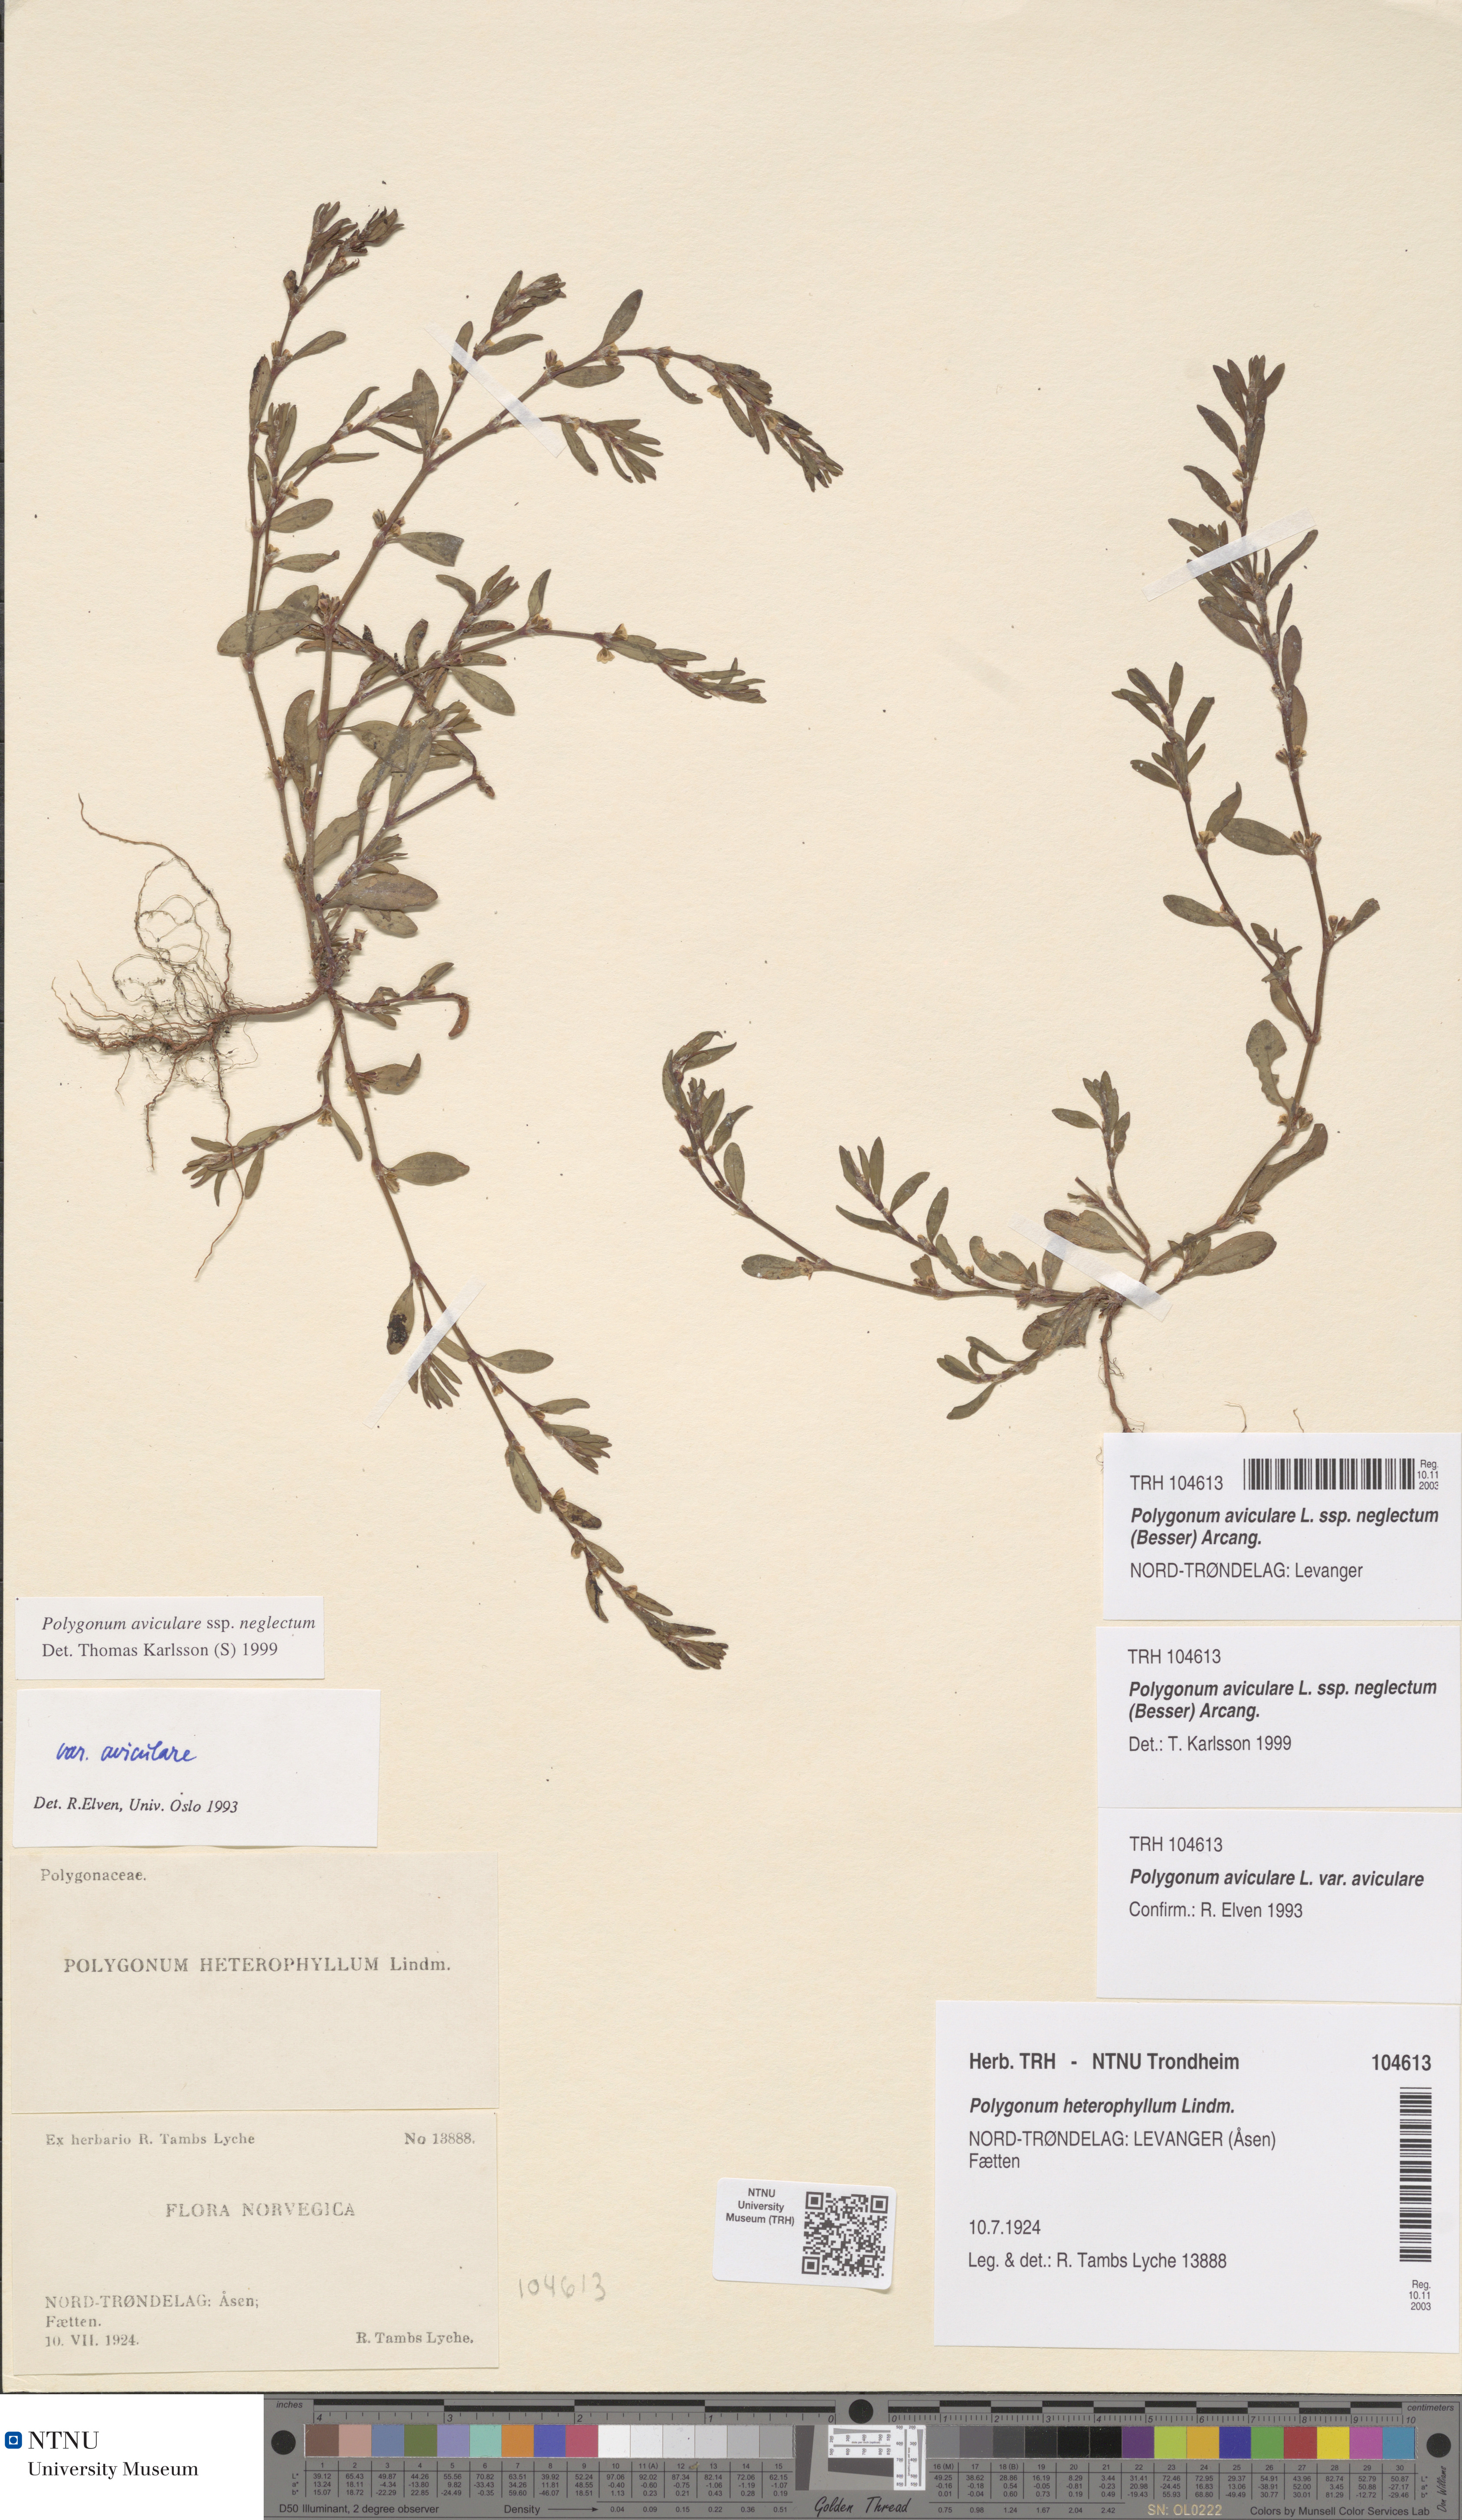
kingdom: Plantae
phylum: Tracheophyta
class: Magnoliopsida
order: Caryophyllales
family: Polygonaceae
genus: Polygonum
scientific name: Polygonum aviculare
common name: Prostrate knotweed
